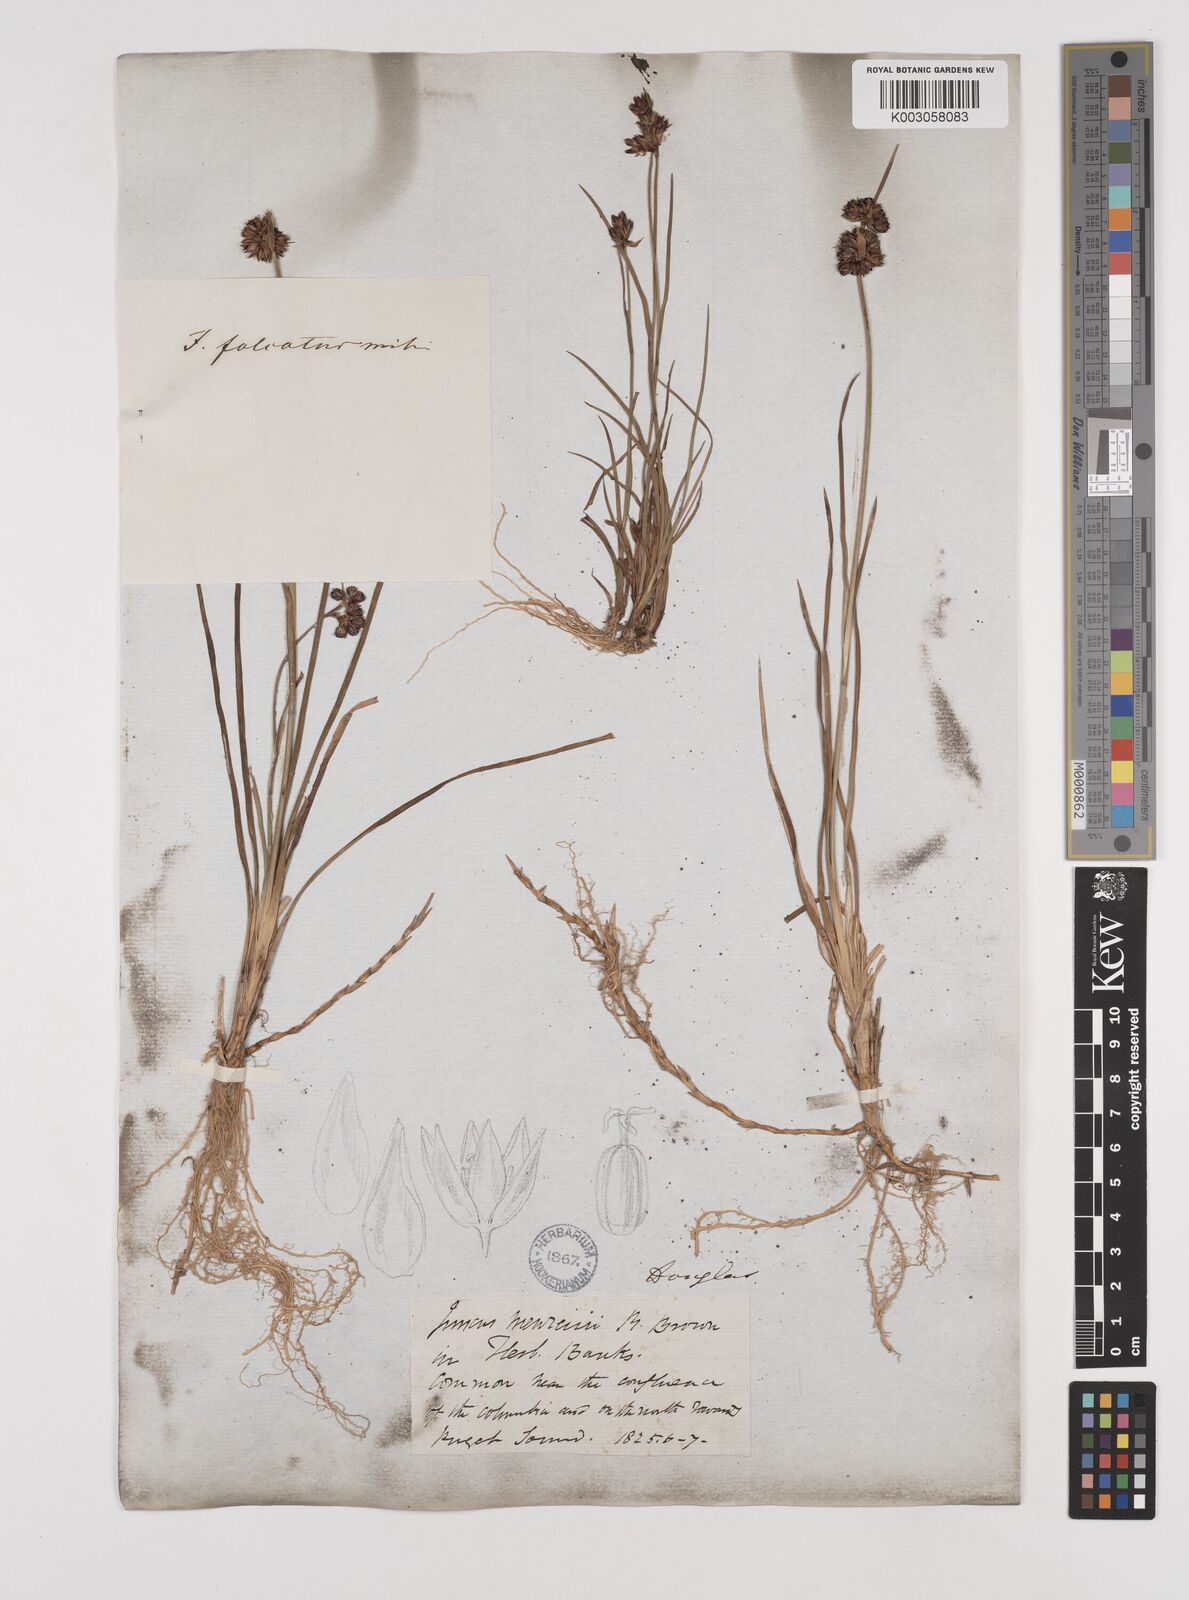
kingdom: Plantae
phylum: Tracheophyta
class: Liliopsida
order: Poales
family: Juncaceae
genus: Juncus
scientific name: Juncus falcatus
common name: Sickle-leaf rush
